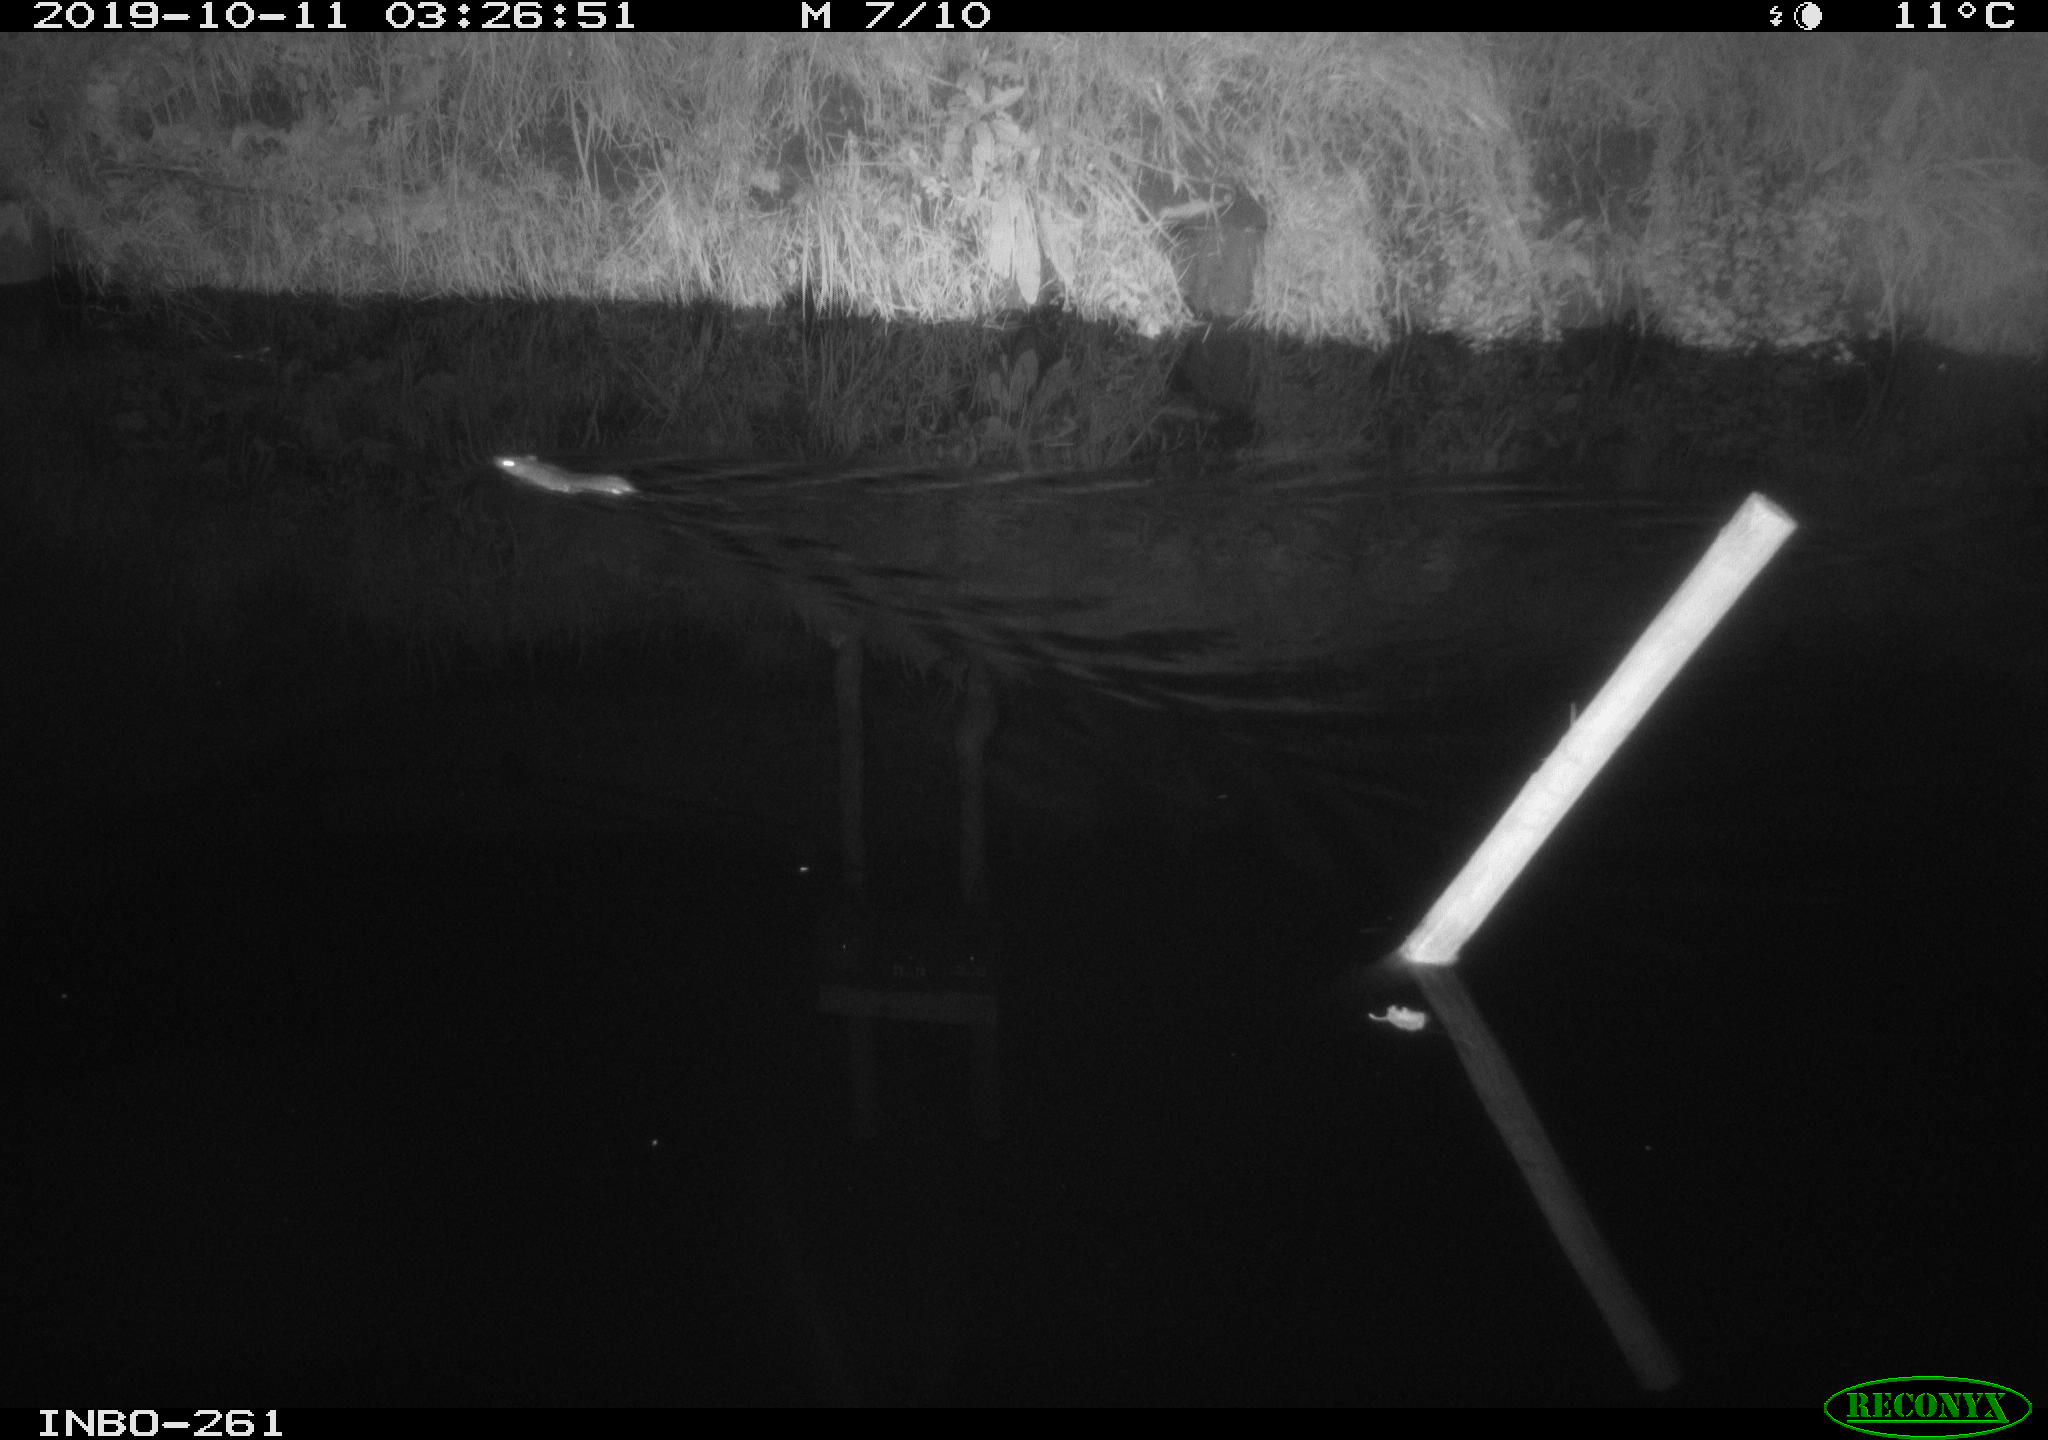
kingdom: Animalia
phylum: Chordata
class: Mammalia
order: Rodentia
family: Muridae
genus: Rattus
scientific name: Rattus norvegicus
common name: Brown rat
